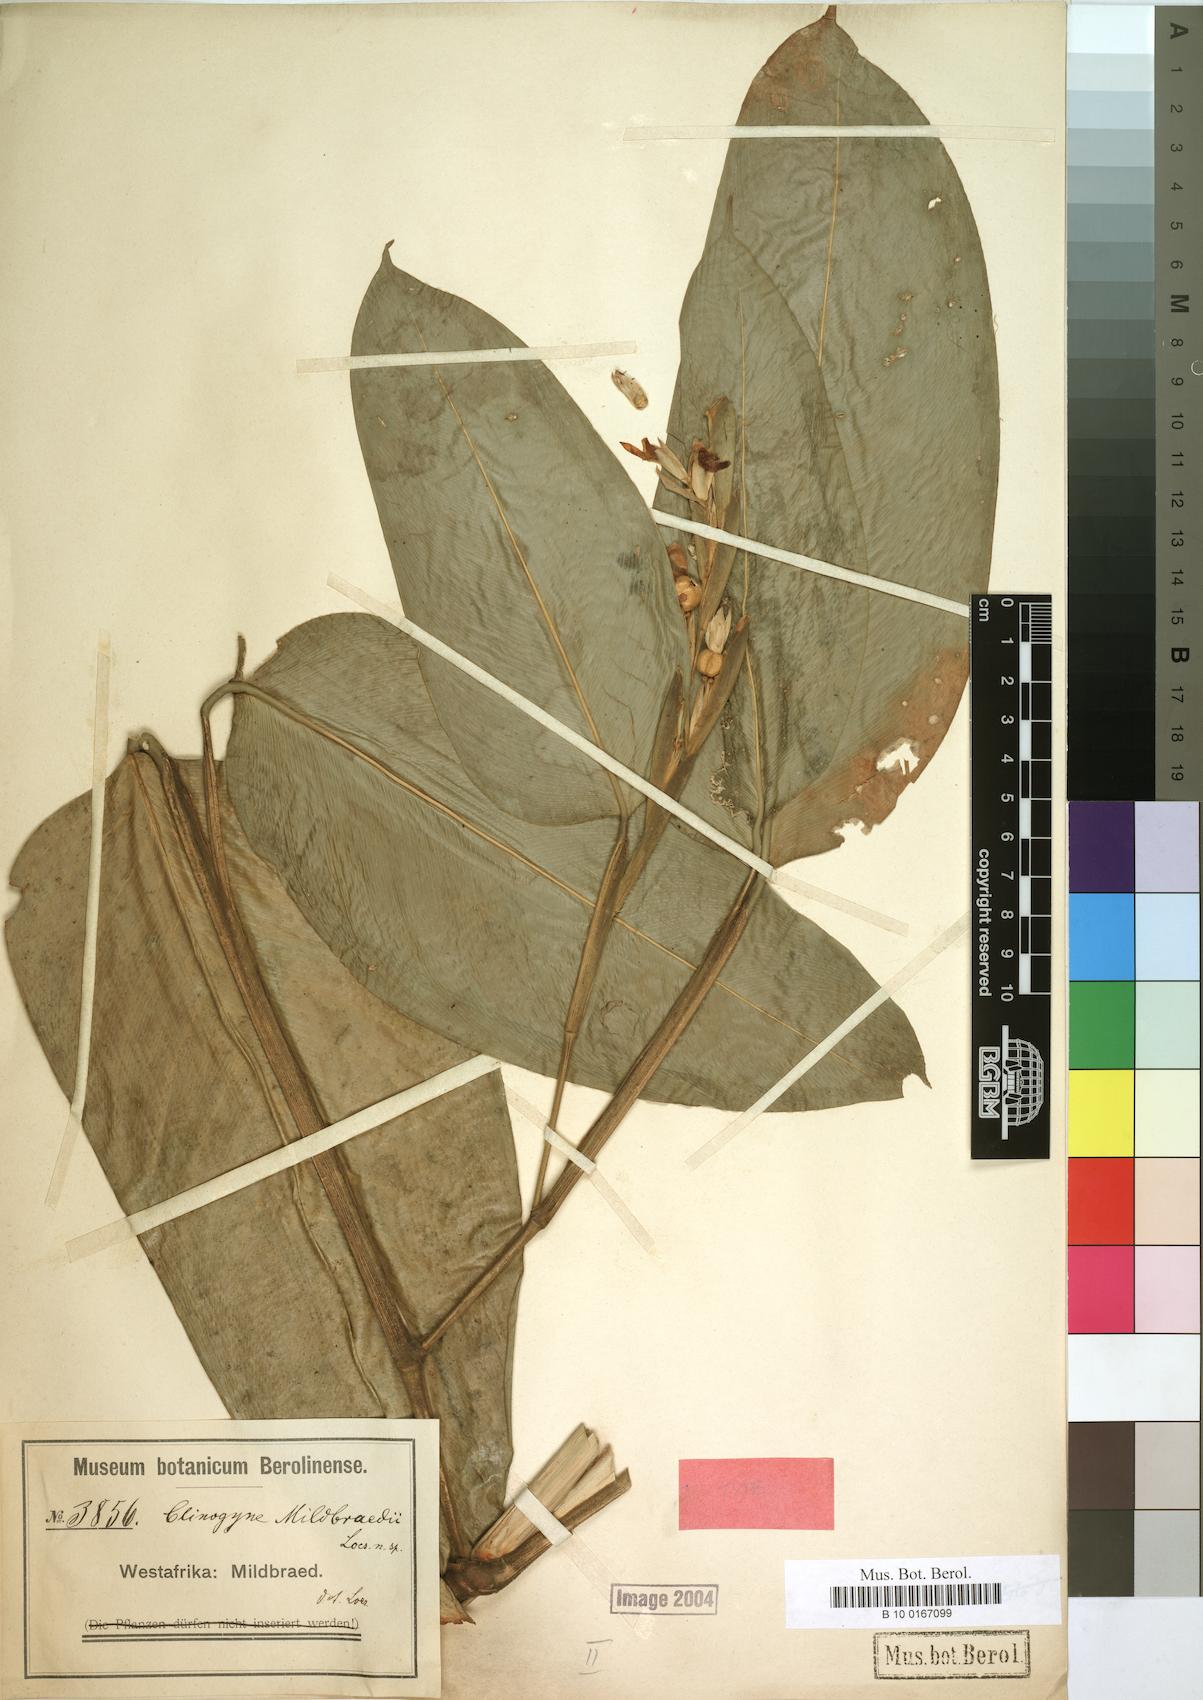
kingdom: Plantae
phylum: Tracheophyta
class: Liliopsida
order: Zingiberales
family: Marantaceae
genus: Marantochloa
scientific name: Marantochloa mildbraedii
